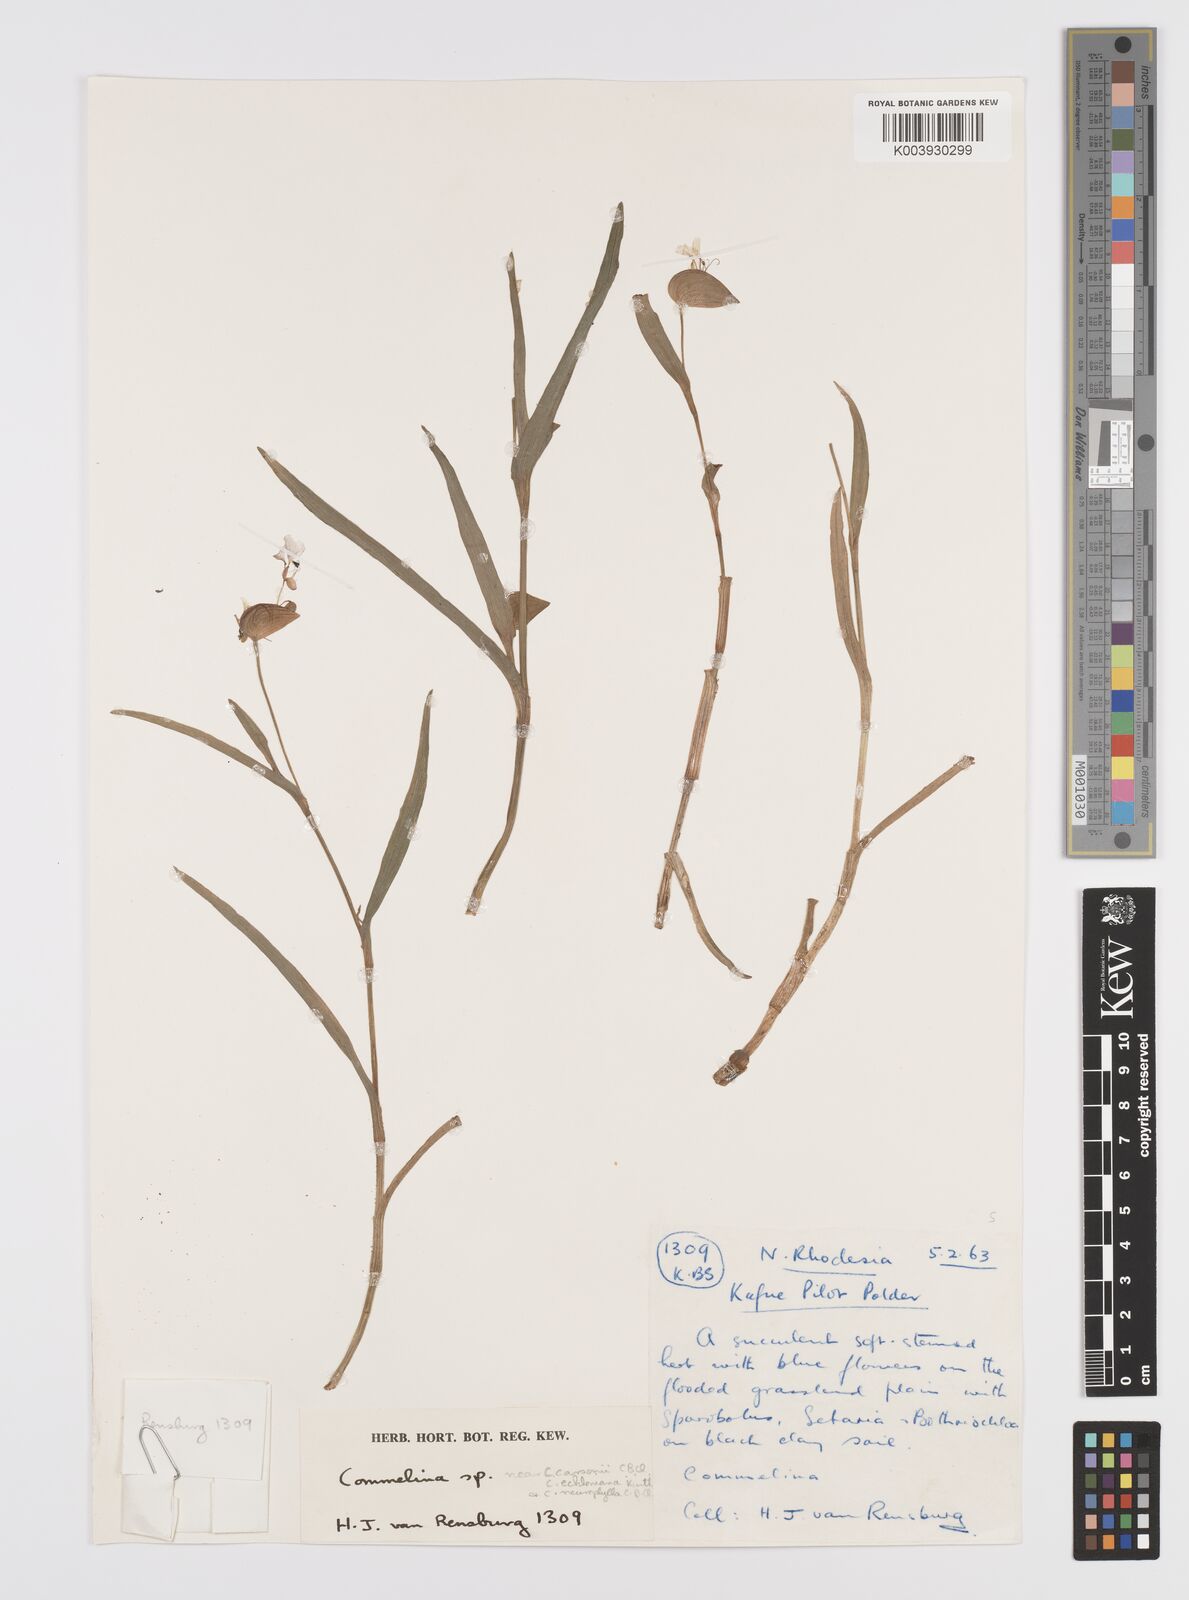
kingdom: Plantae
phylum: Tracheophyta
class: Liliopsida
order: Commelinales
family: Commelinaceae
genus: Commelina
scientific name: Commelina schweinfurthii
